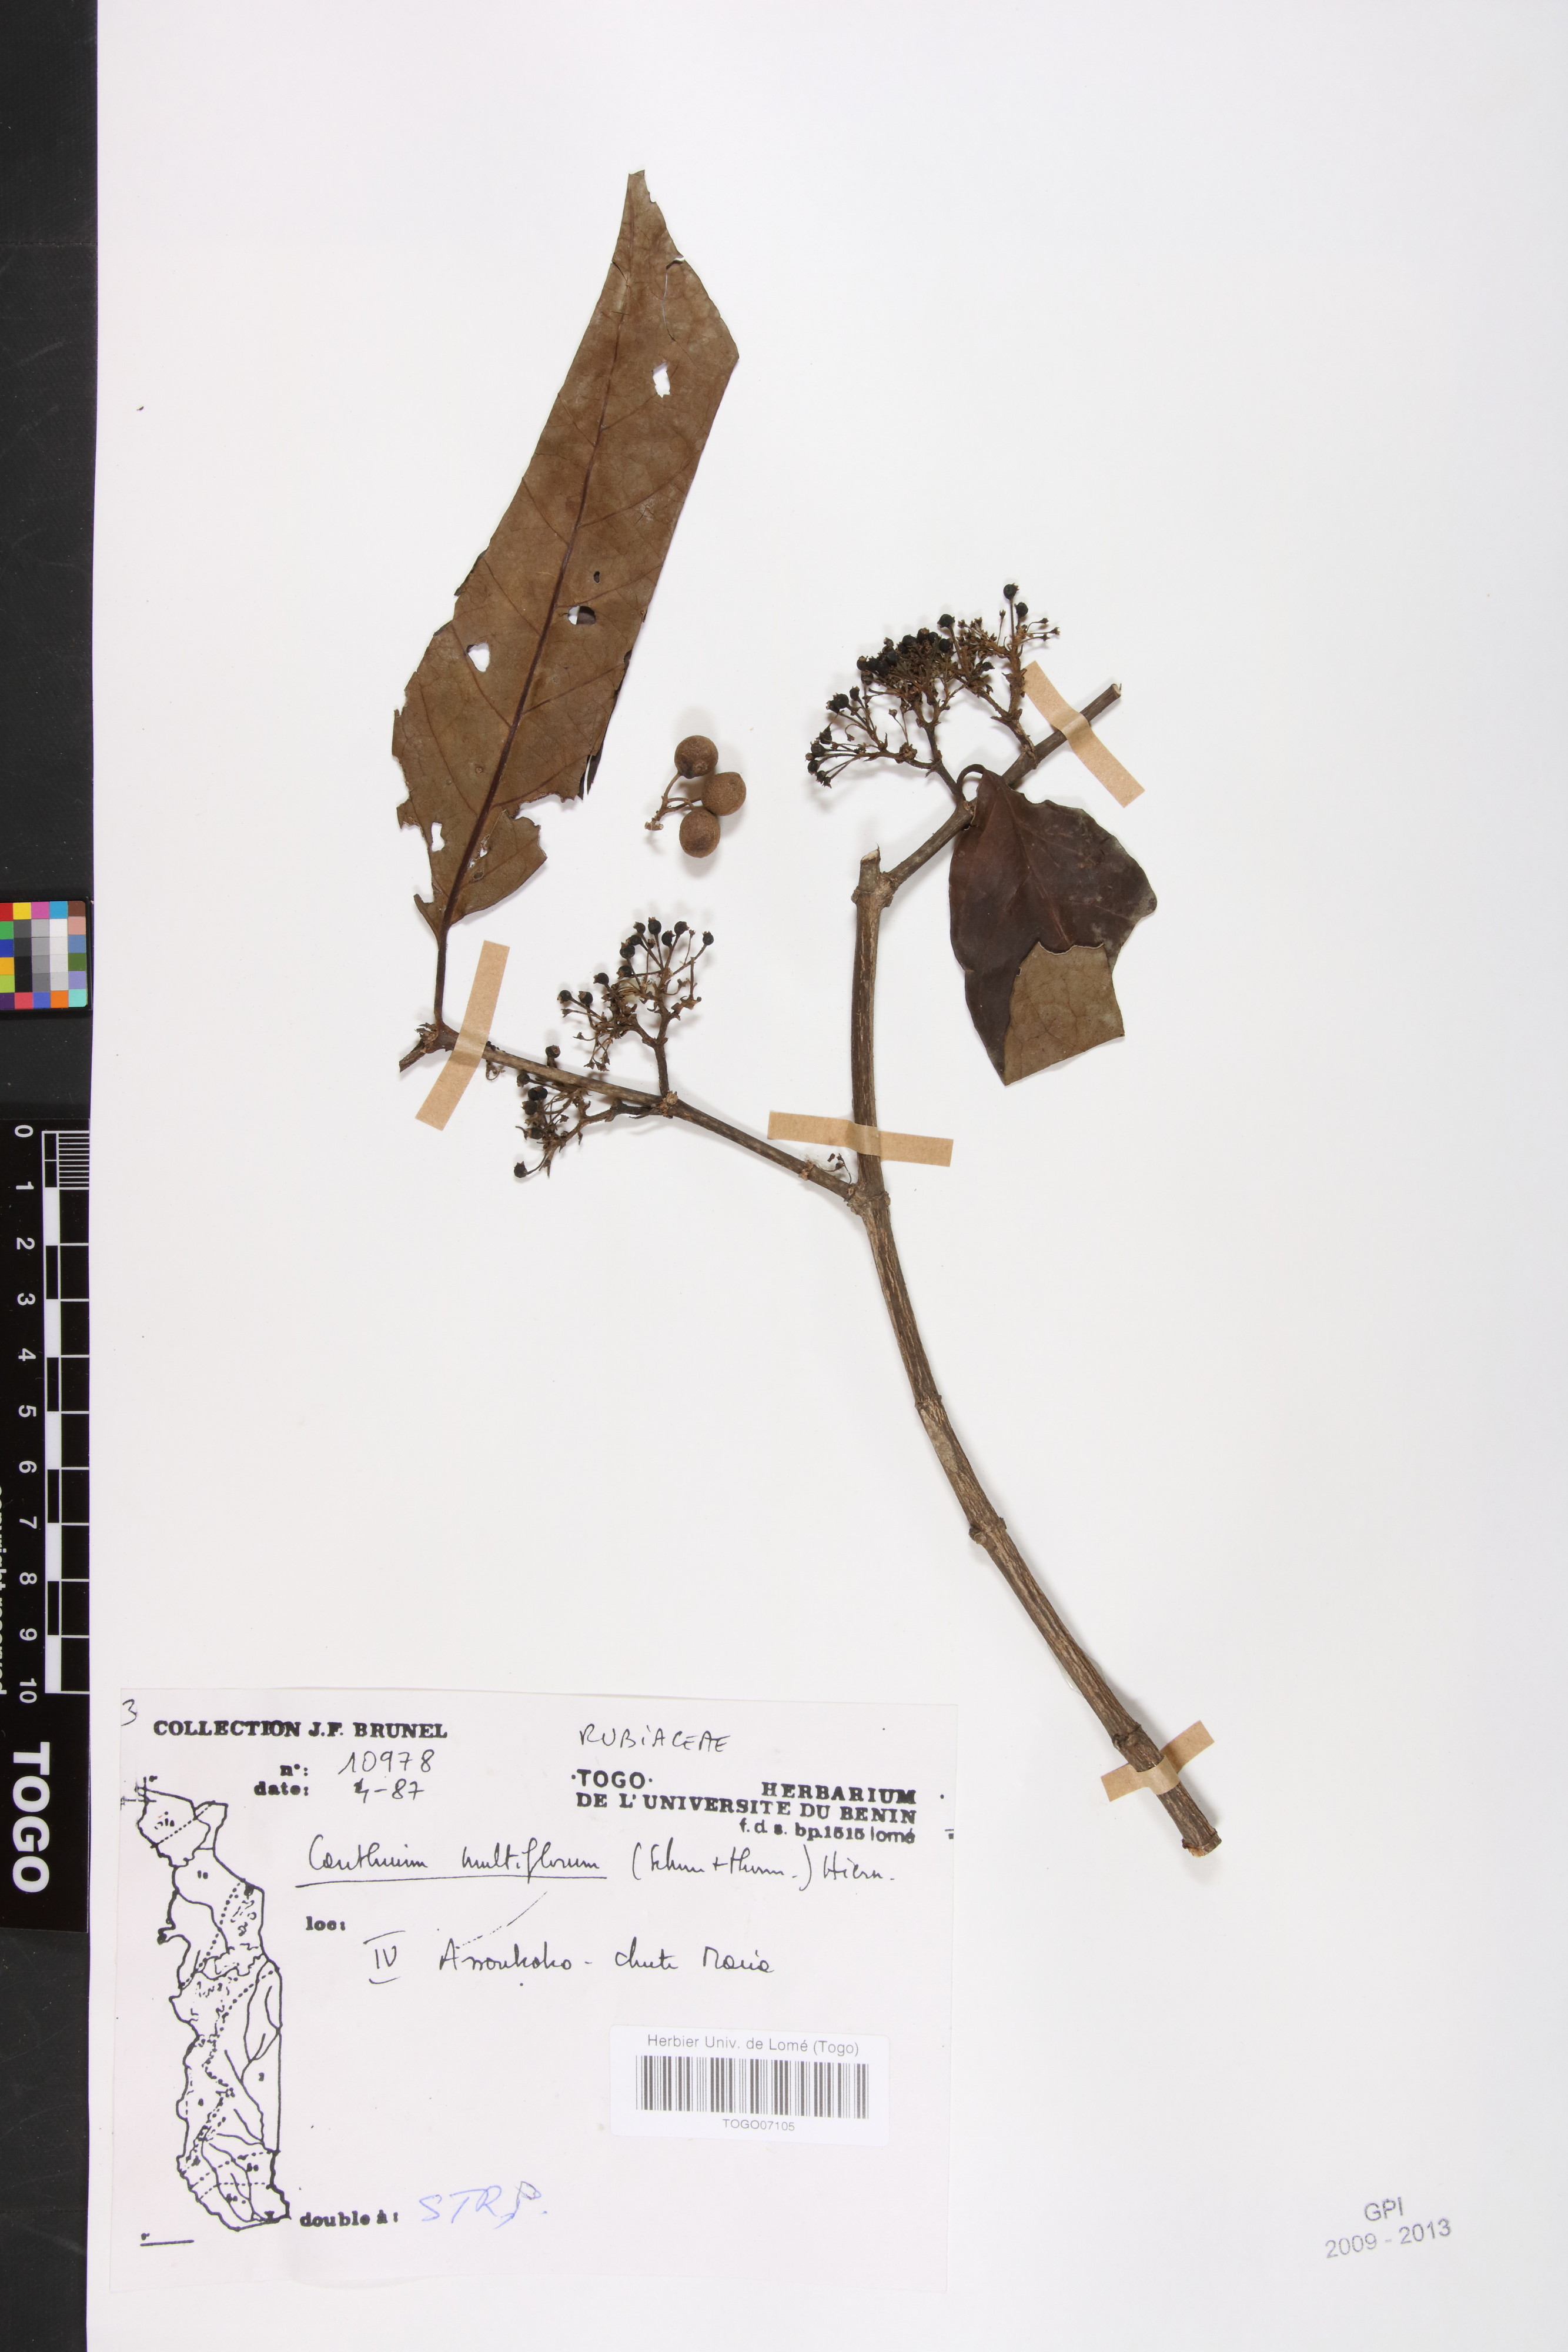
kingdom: Plantae
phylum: Tracheophyta
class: Magnoliopsida
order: Gentianales
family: Rubiaceae
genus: Keetia
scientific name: Keetia multiflora
